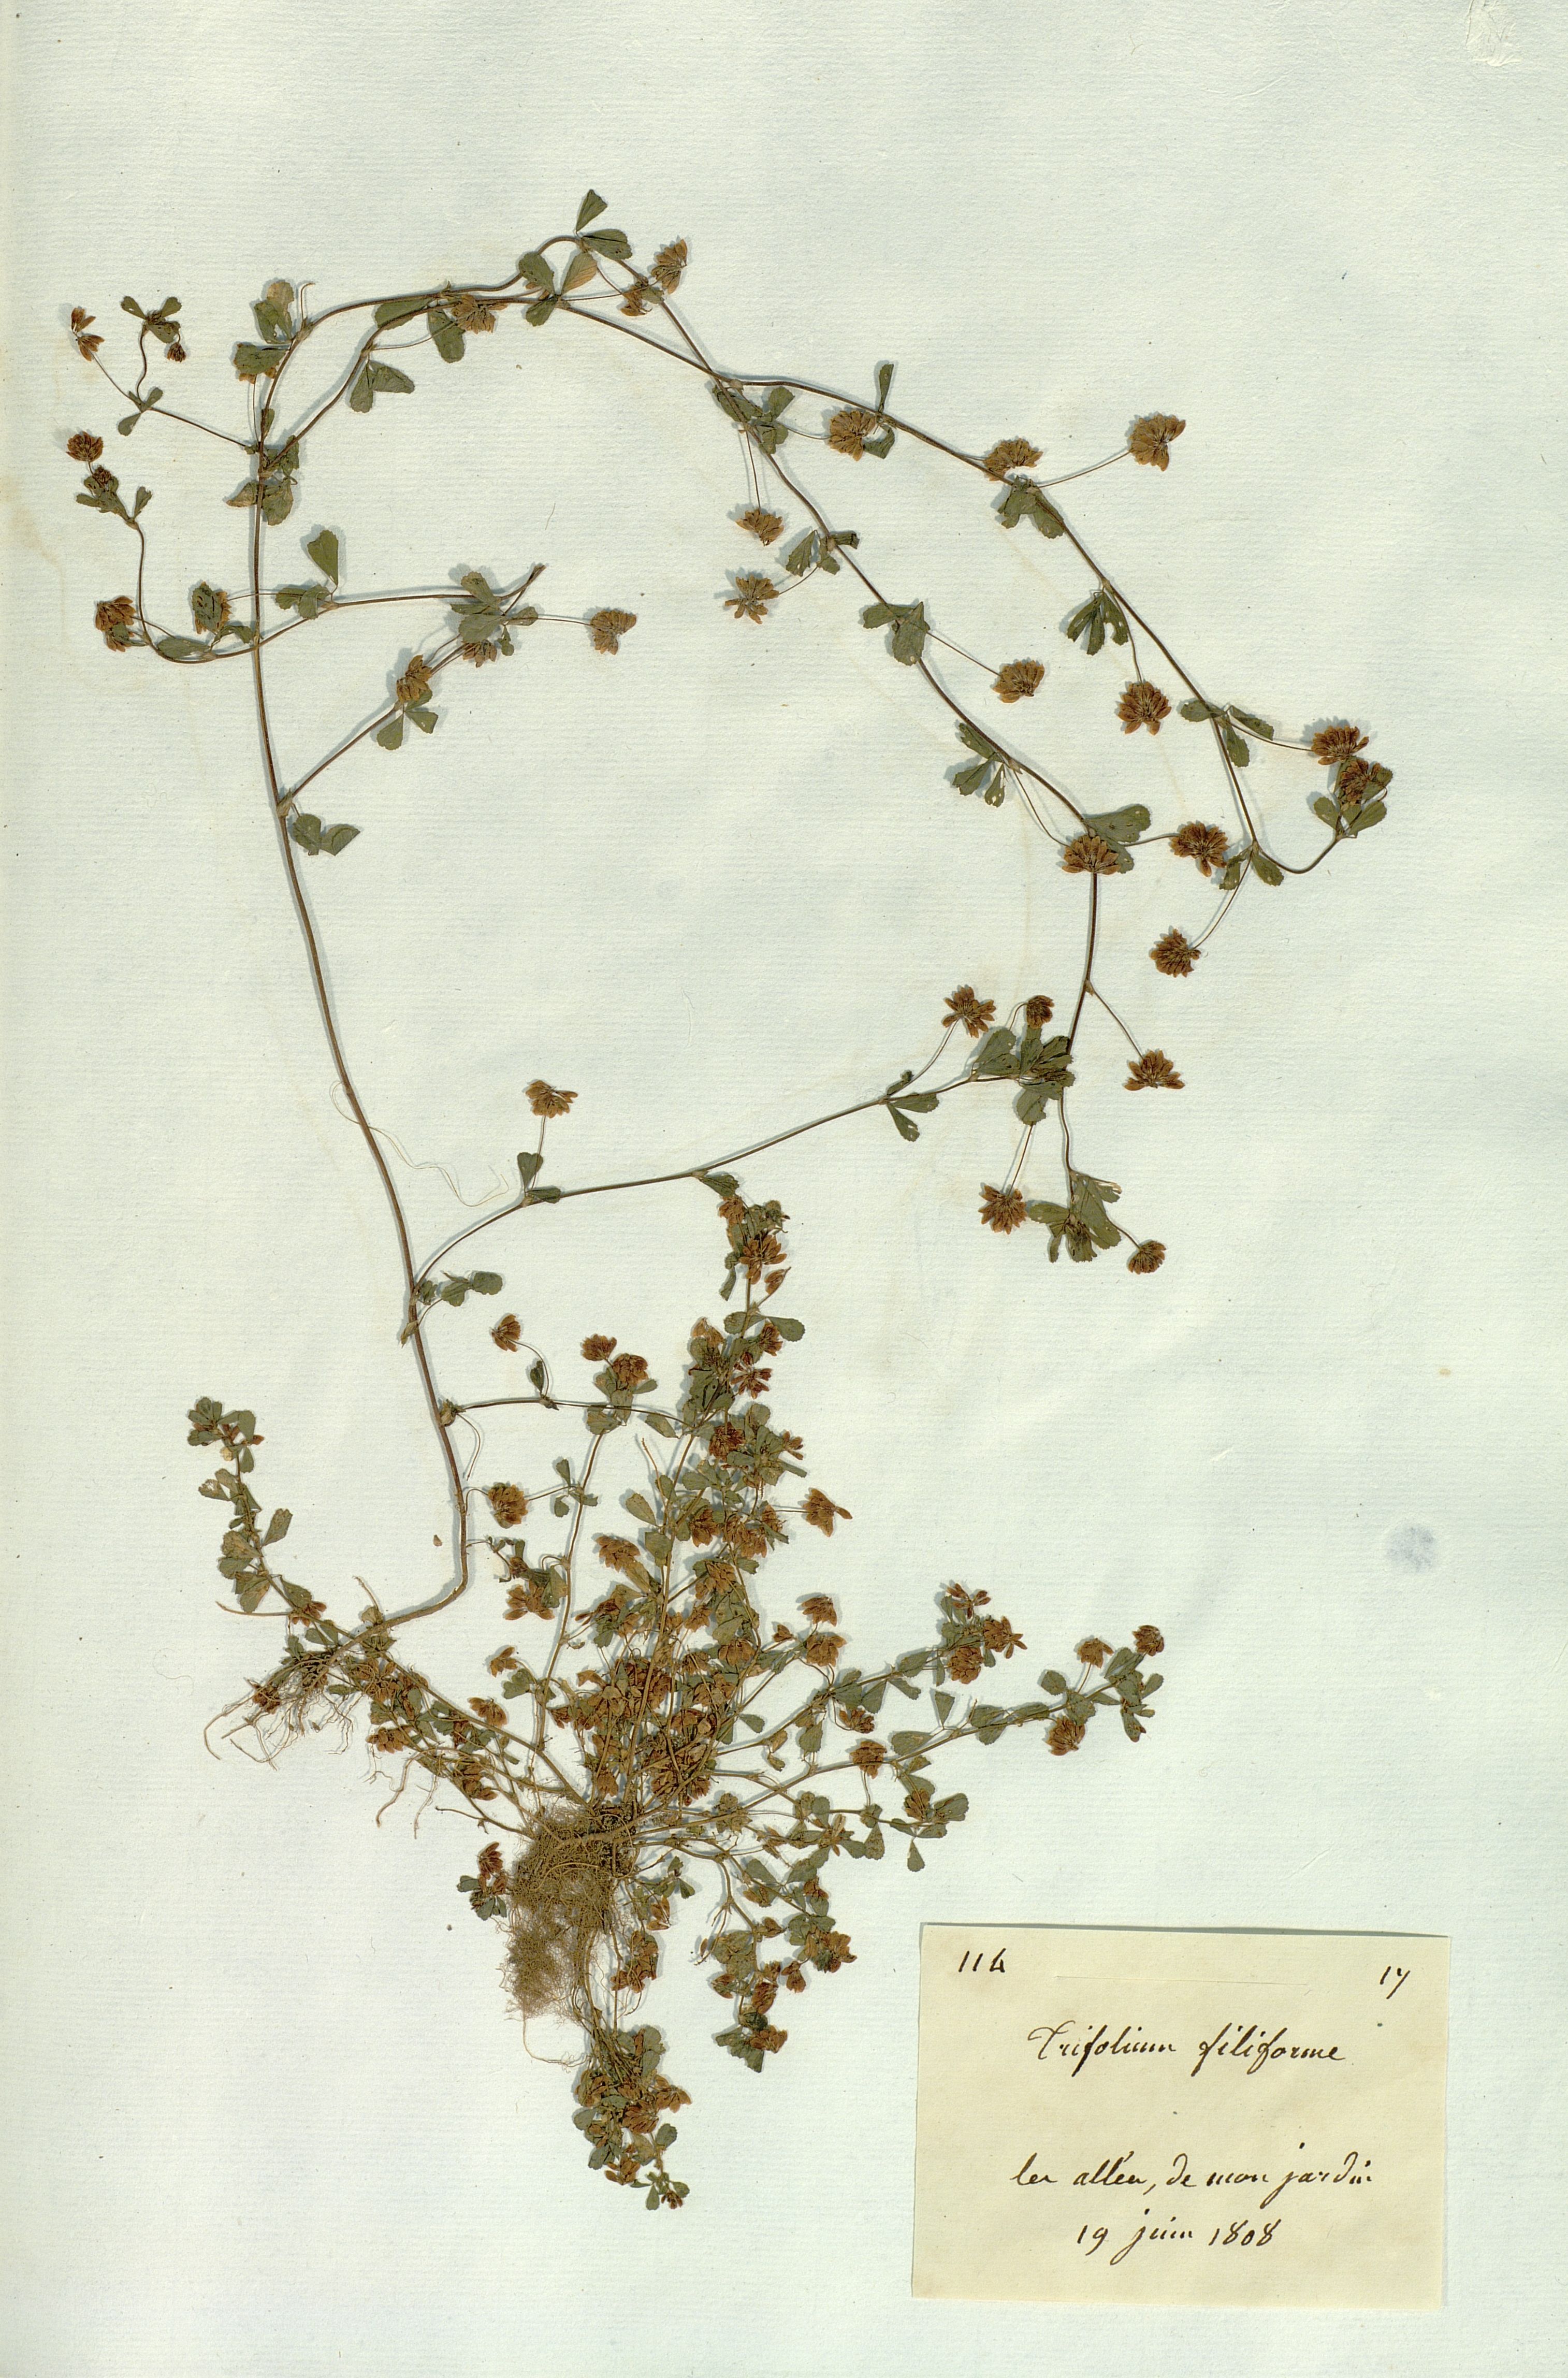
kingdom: Plantae
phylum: Tracheophyta
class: Magnoliopsida
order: Fabales
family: Fabaceae
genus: Trifolium
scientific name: Trifolium micranthum
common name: Slender trefoil
